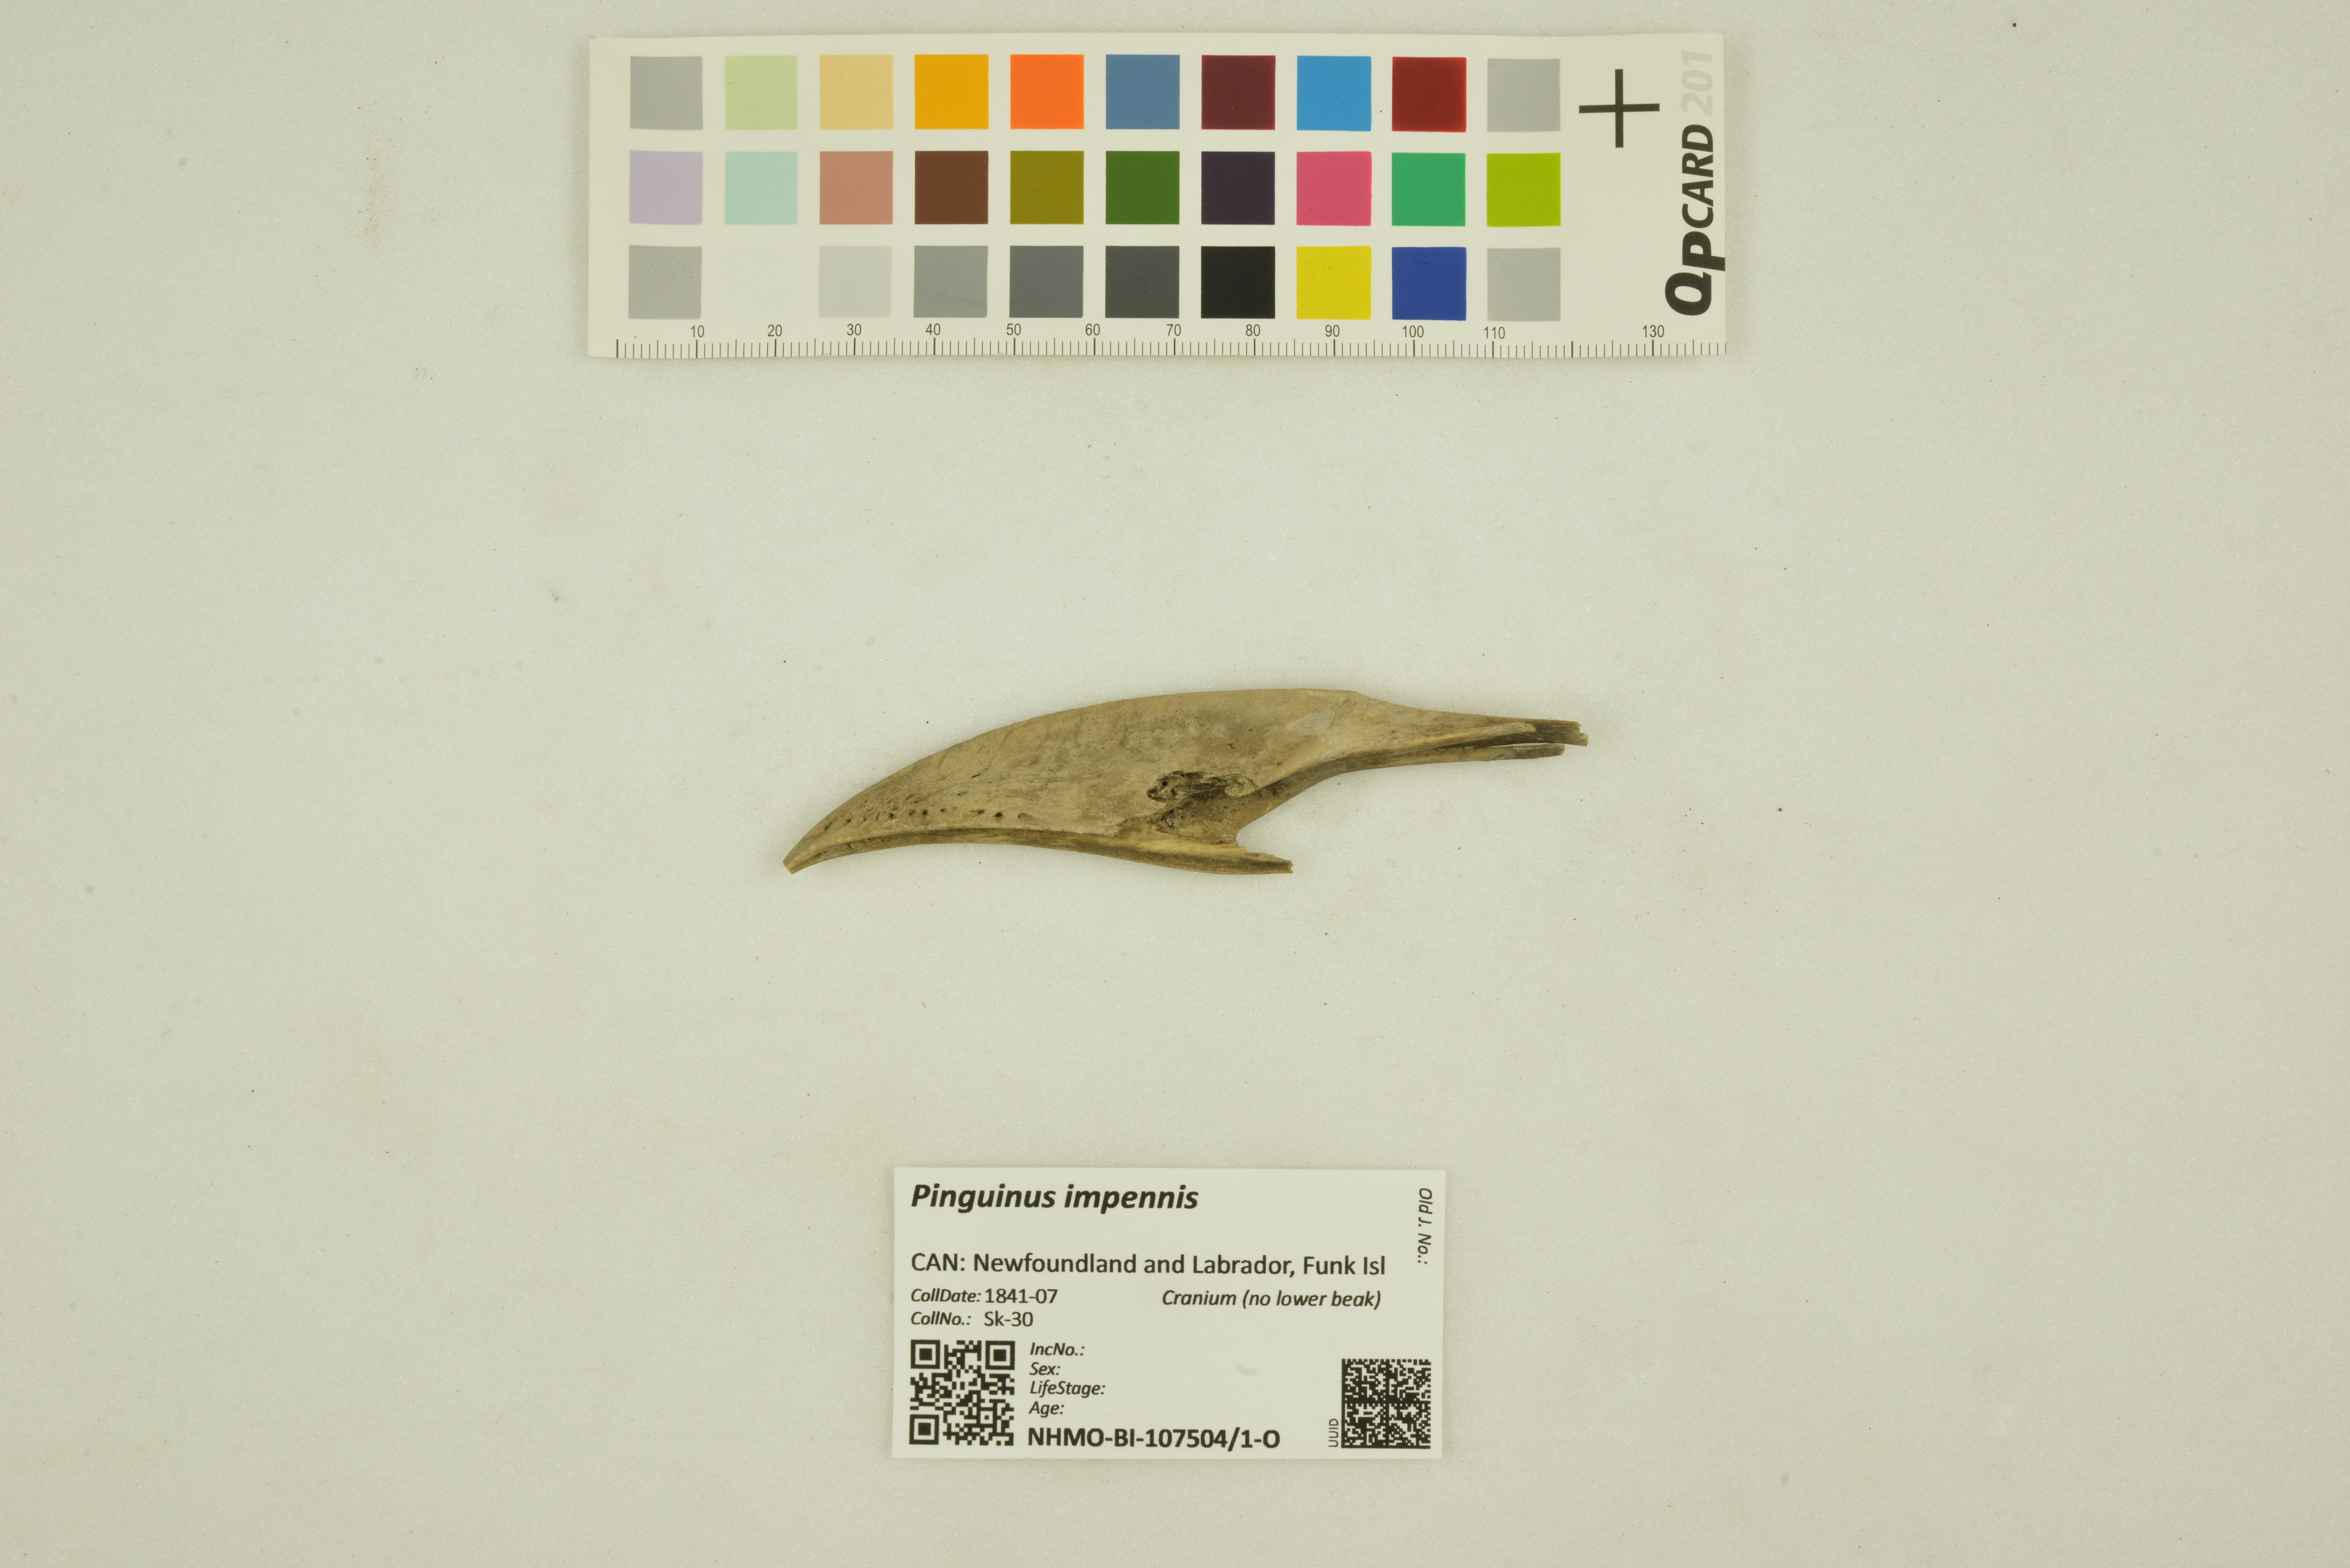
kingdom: Animalia
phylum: Chordata
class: Aves
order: Charadriiformes
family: Alcidae
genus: Pinguinus
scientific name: Pinguinus impennis
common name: Great auk
